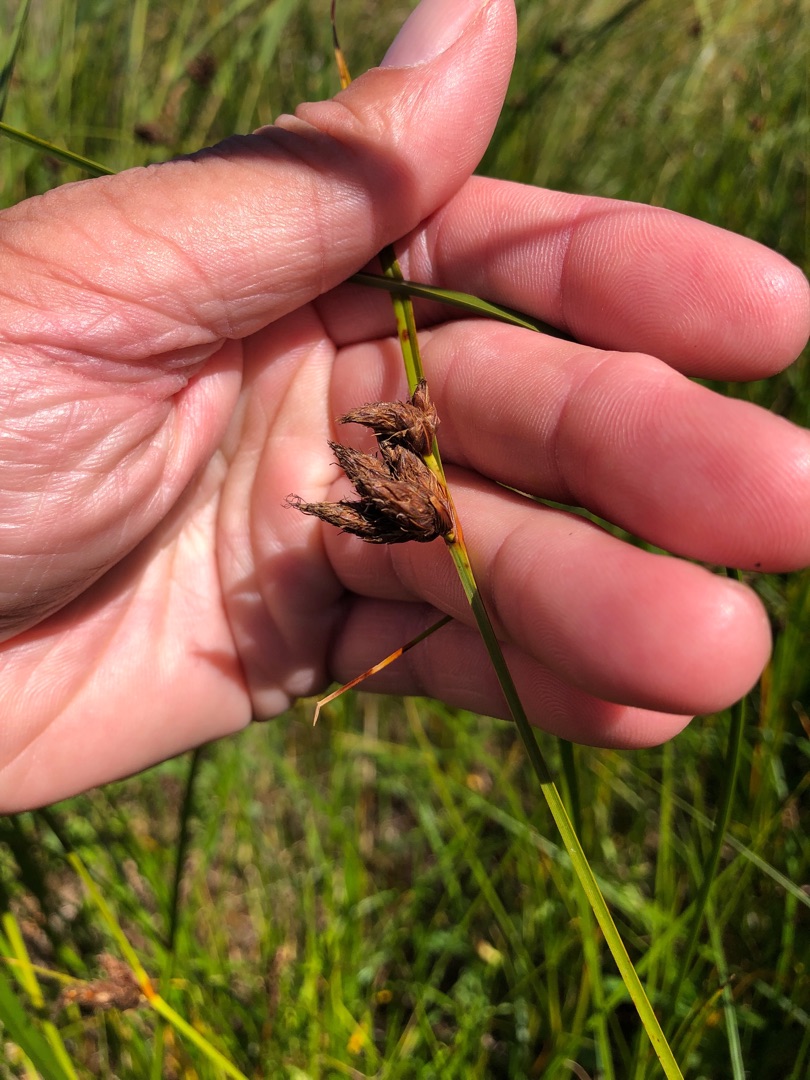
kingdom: Plantae
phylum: Tracheophyta
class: Liliopsida
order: Poales
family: Cyperaceae
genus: Bolboschoenus
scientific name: Bolboschoenus maritimus
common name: Strand-kogleaks
